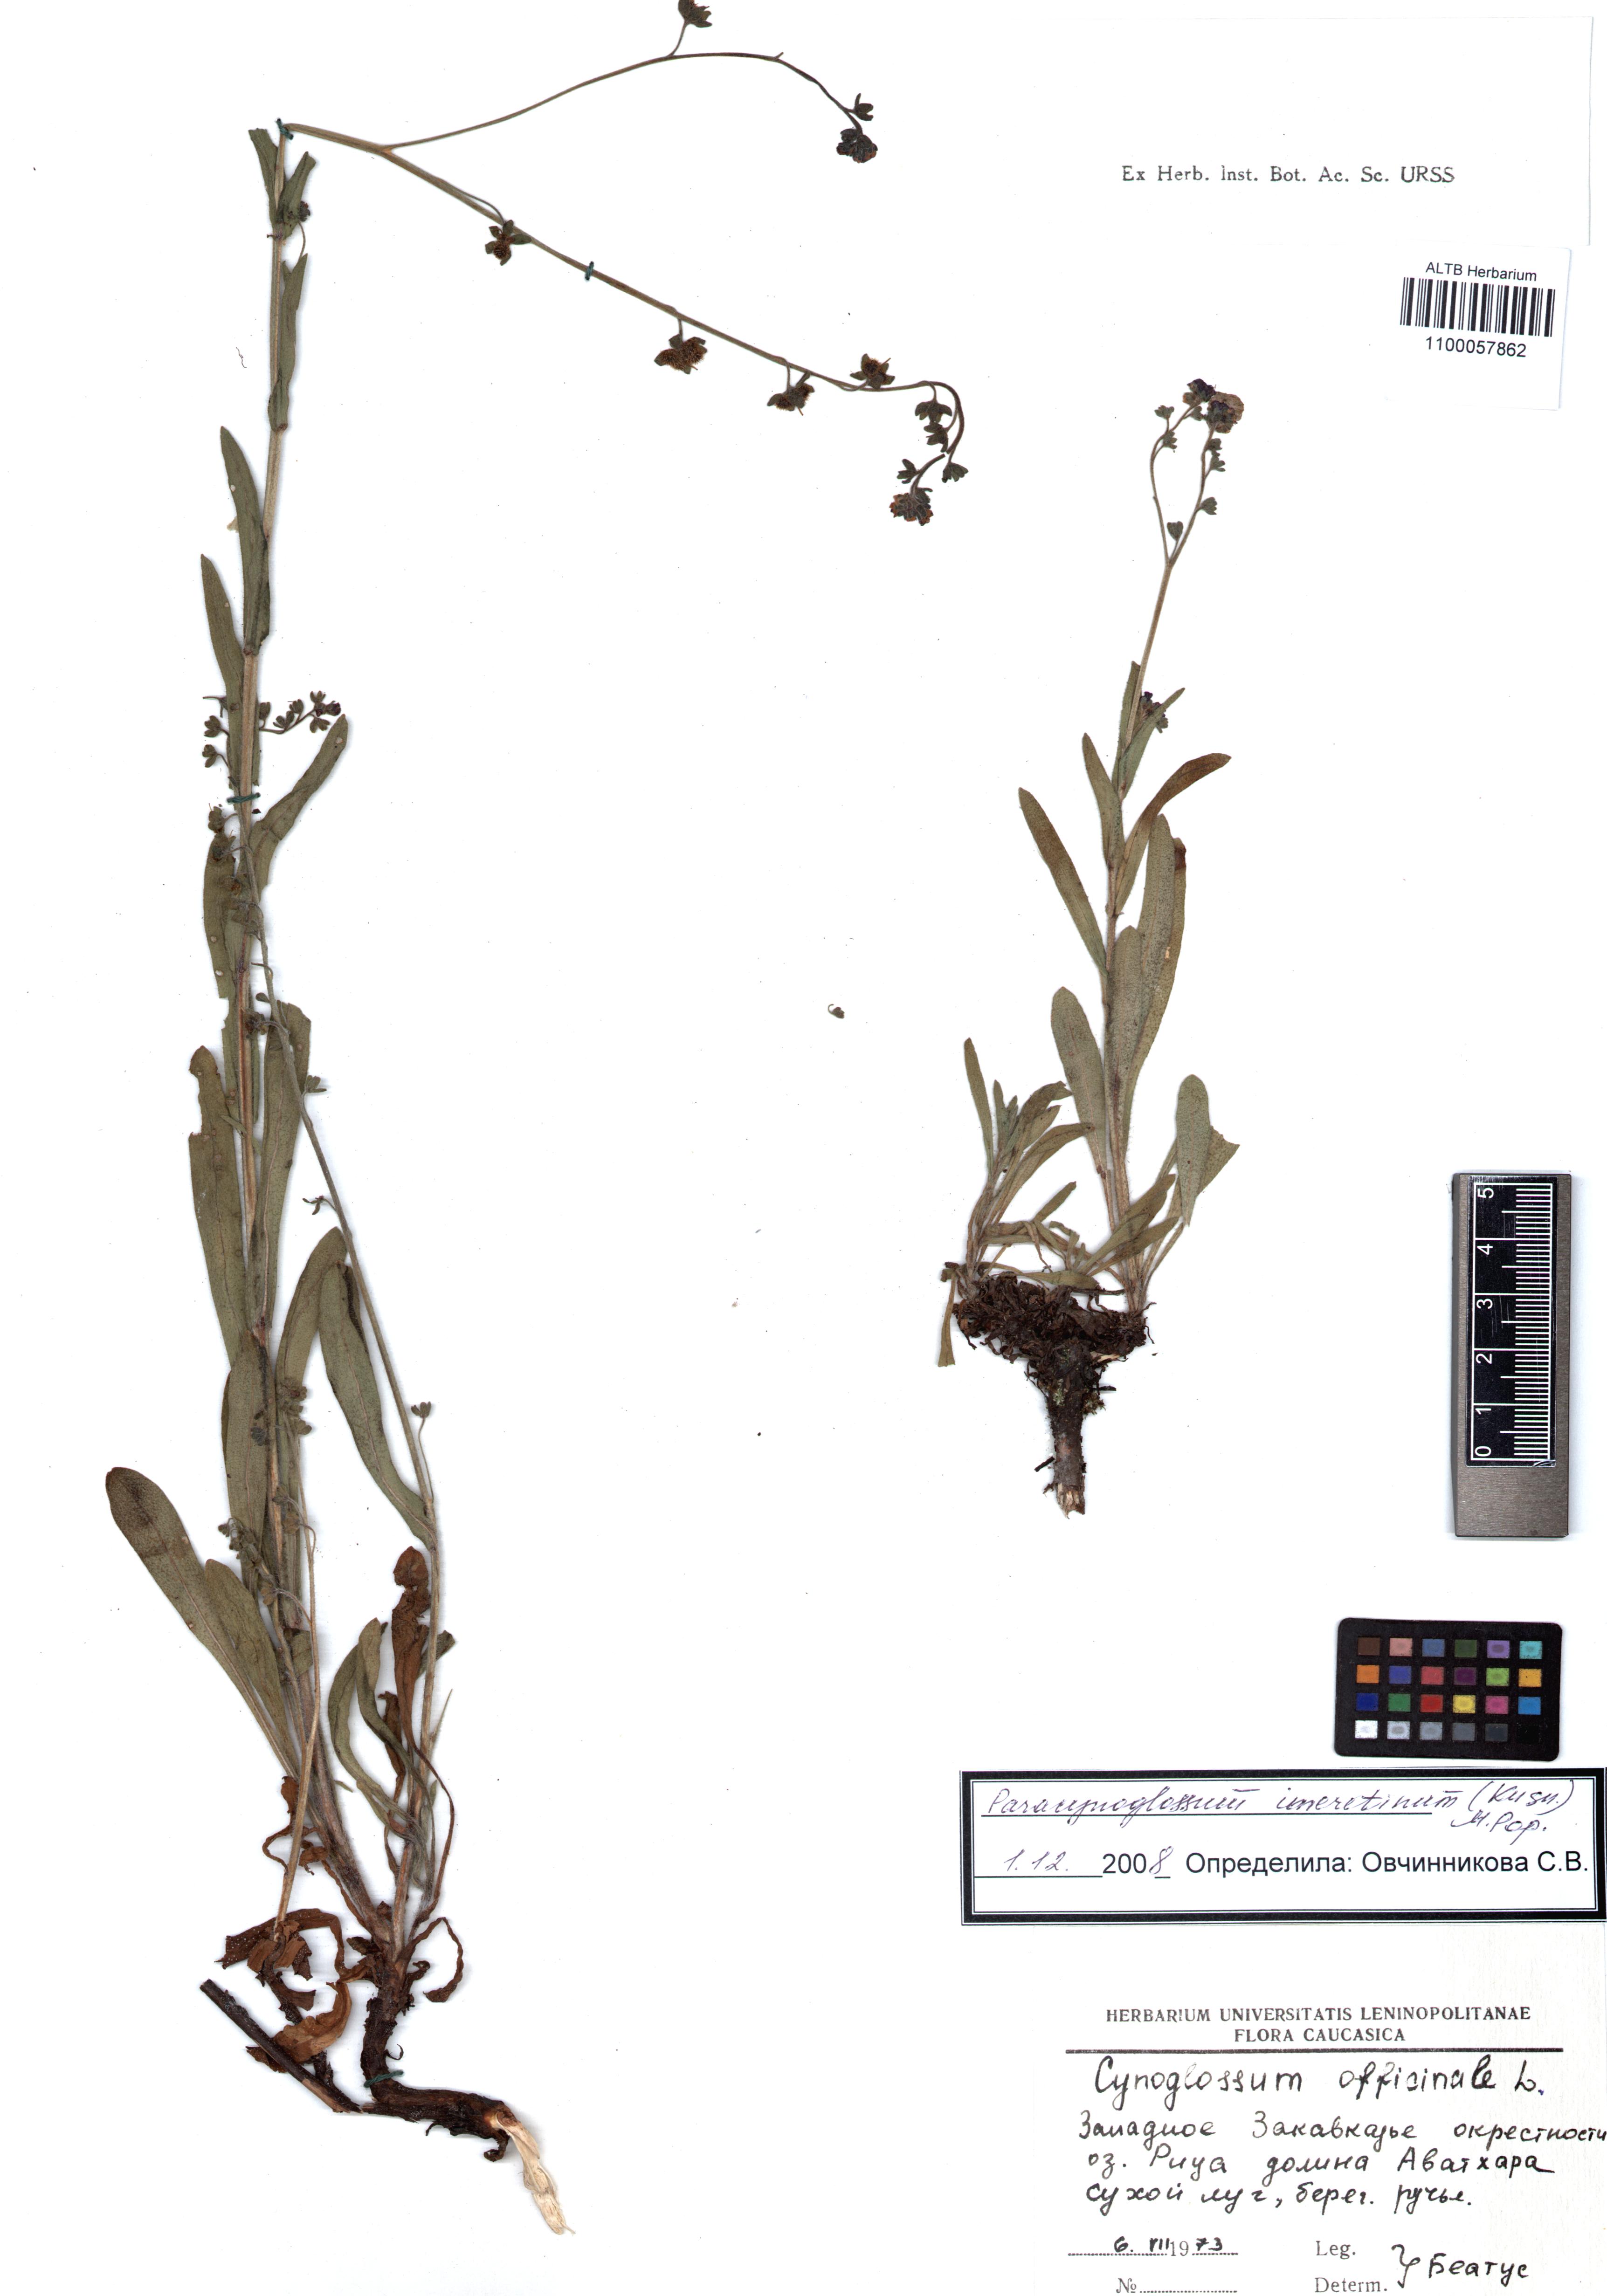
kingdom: Plantae
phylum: Tracheophyta
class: Magnoliopsida
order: Boraginales
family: Boraginaceae
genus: Rochelia
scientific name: Rochelia zeylanica
